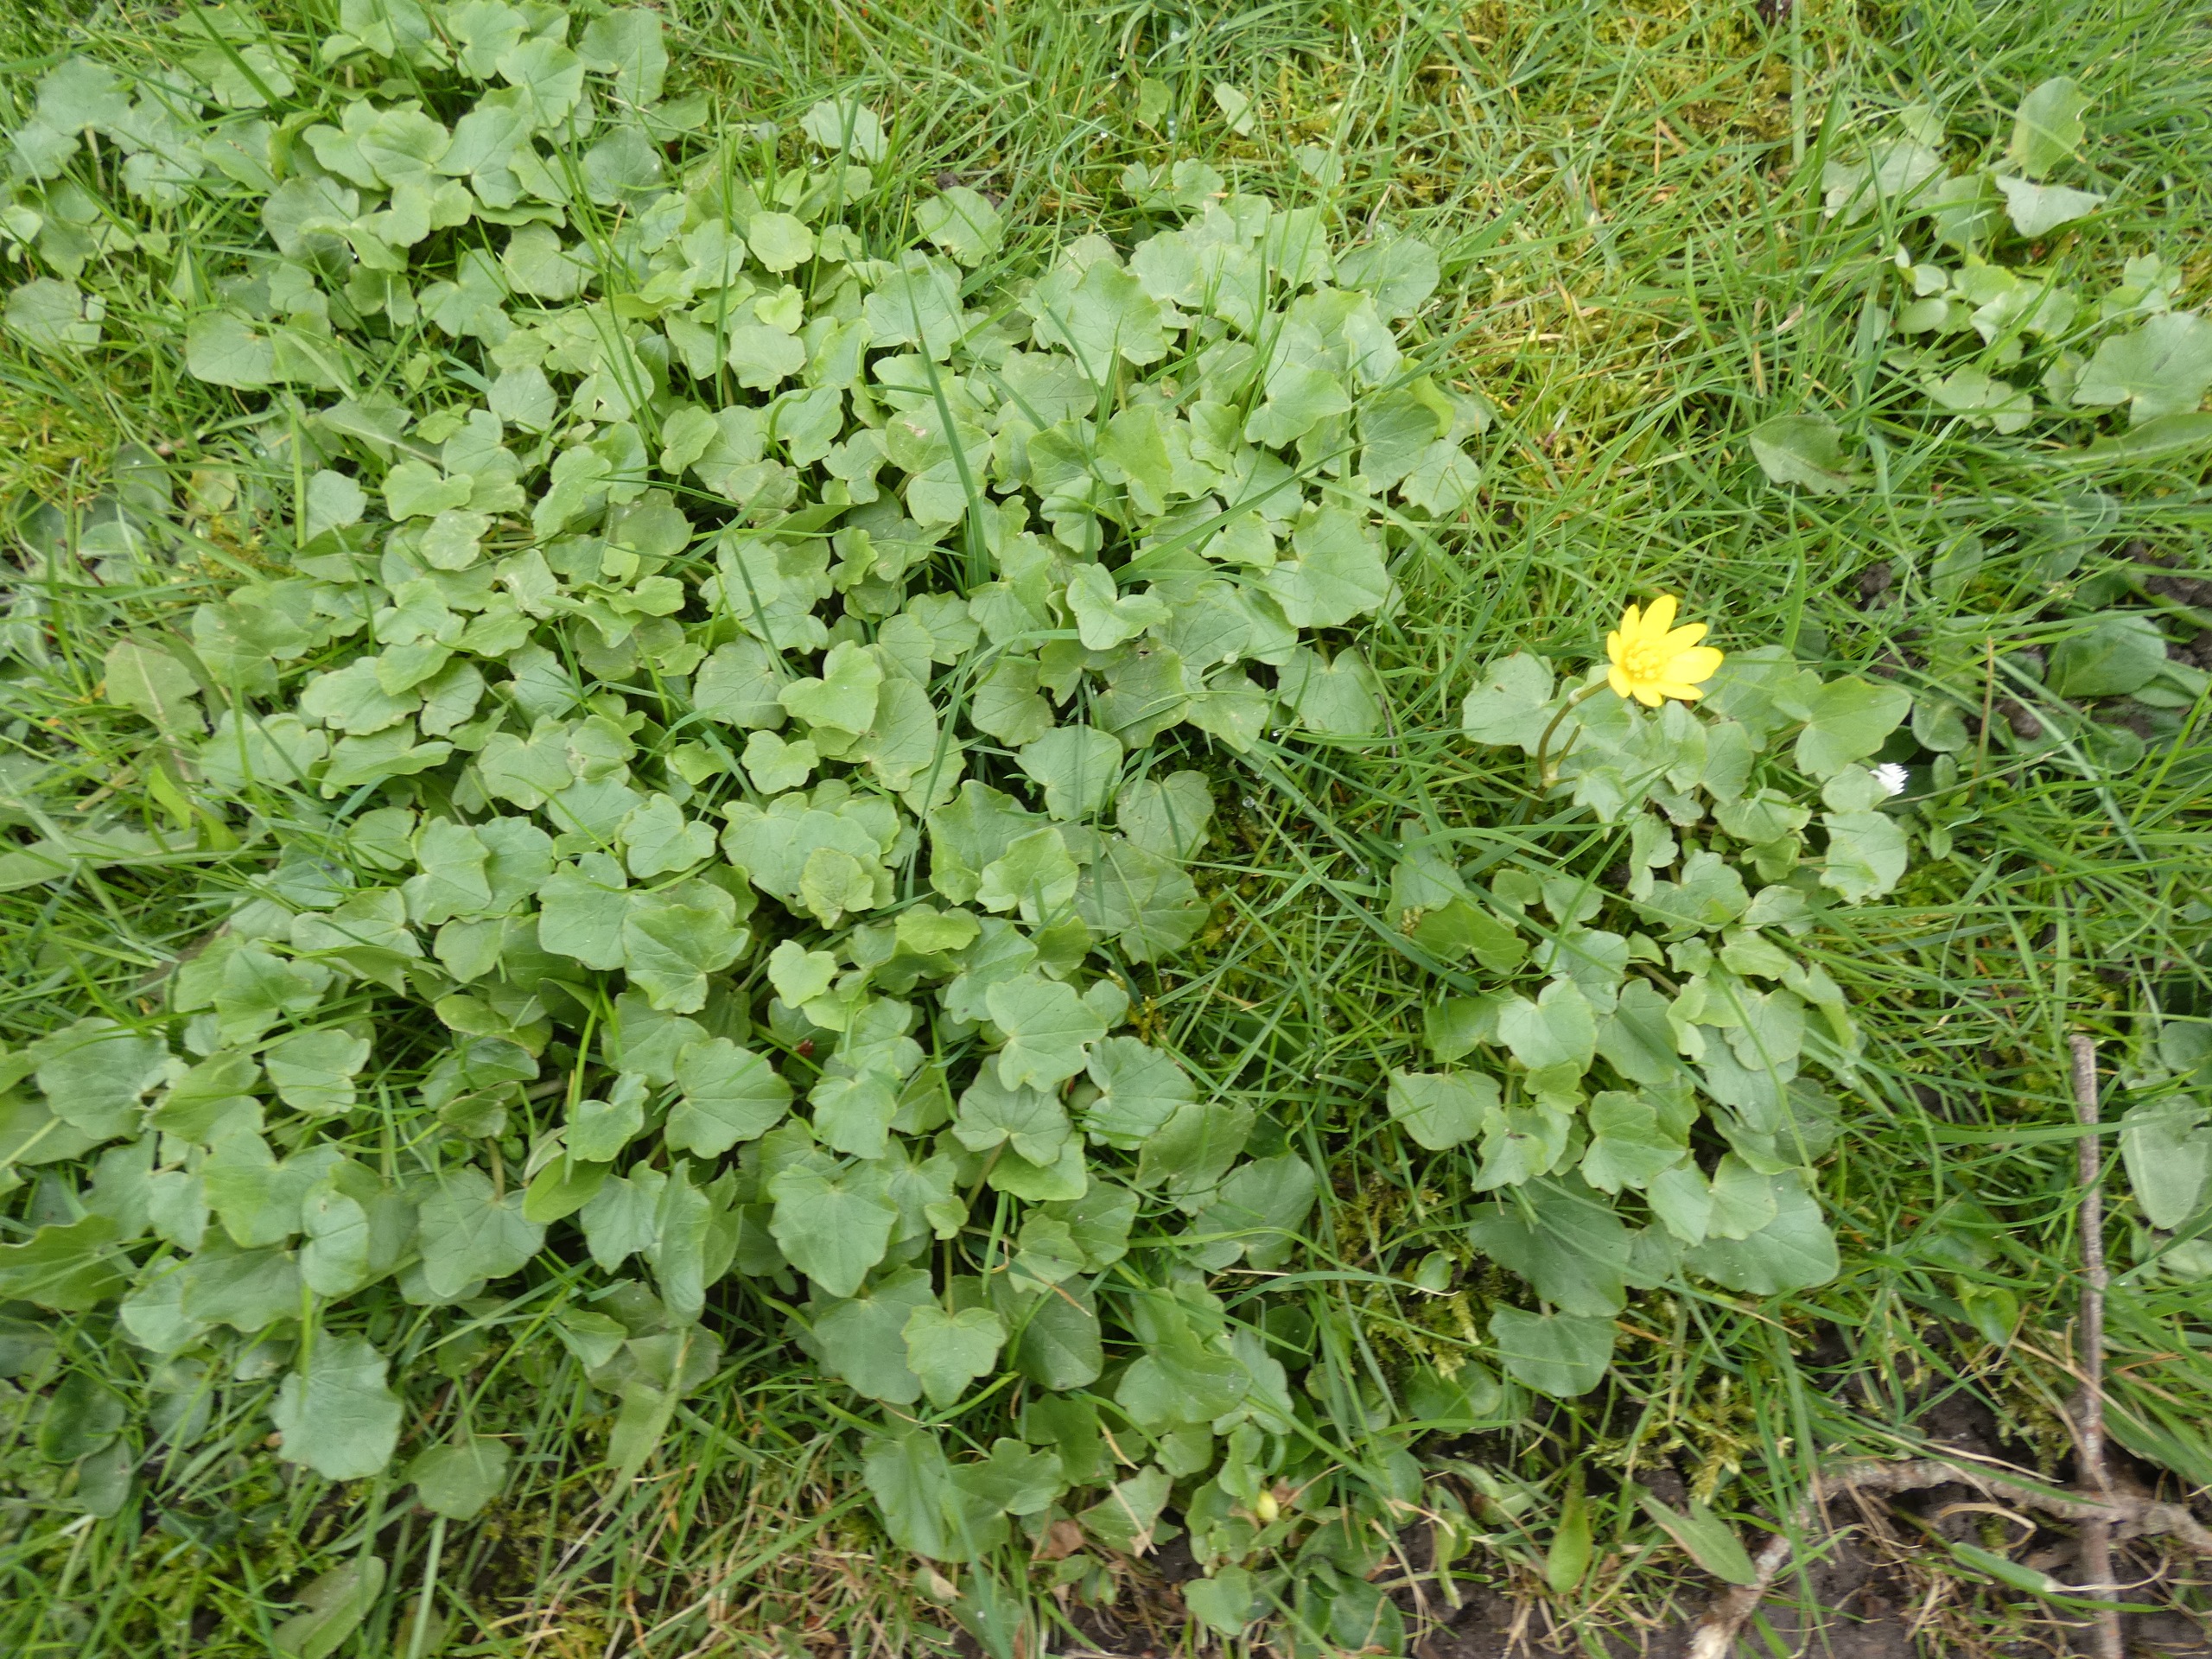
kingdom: Plantae
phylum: Tracheophyta
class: Magnoliopsida
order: Ranunculales
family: Ranunculaceae
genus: Ficaria
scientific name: Ficaria verna
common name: Vorterod
